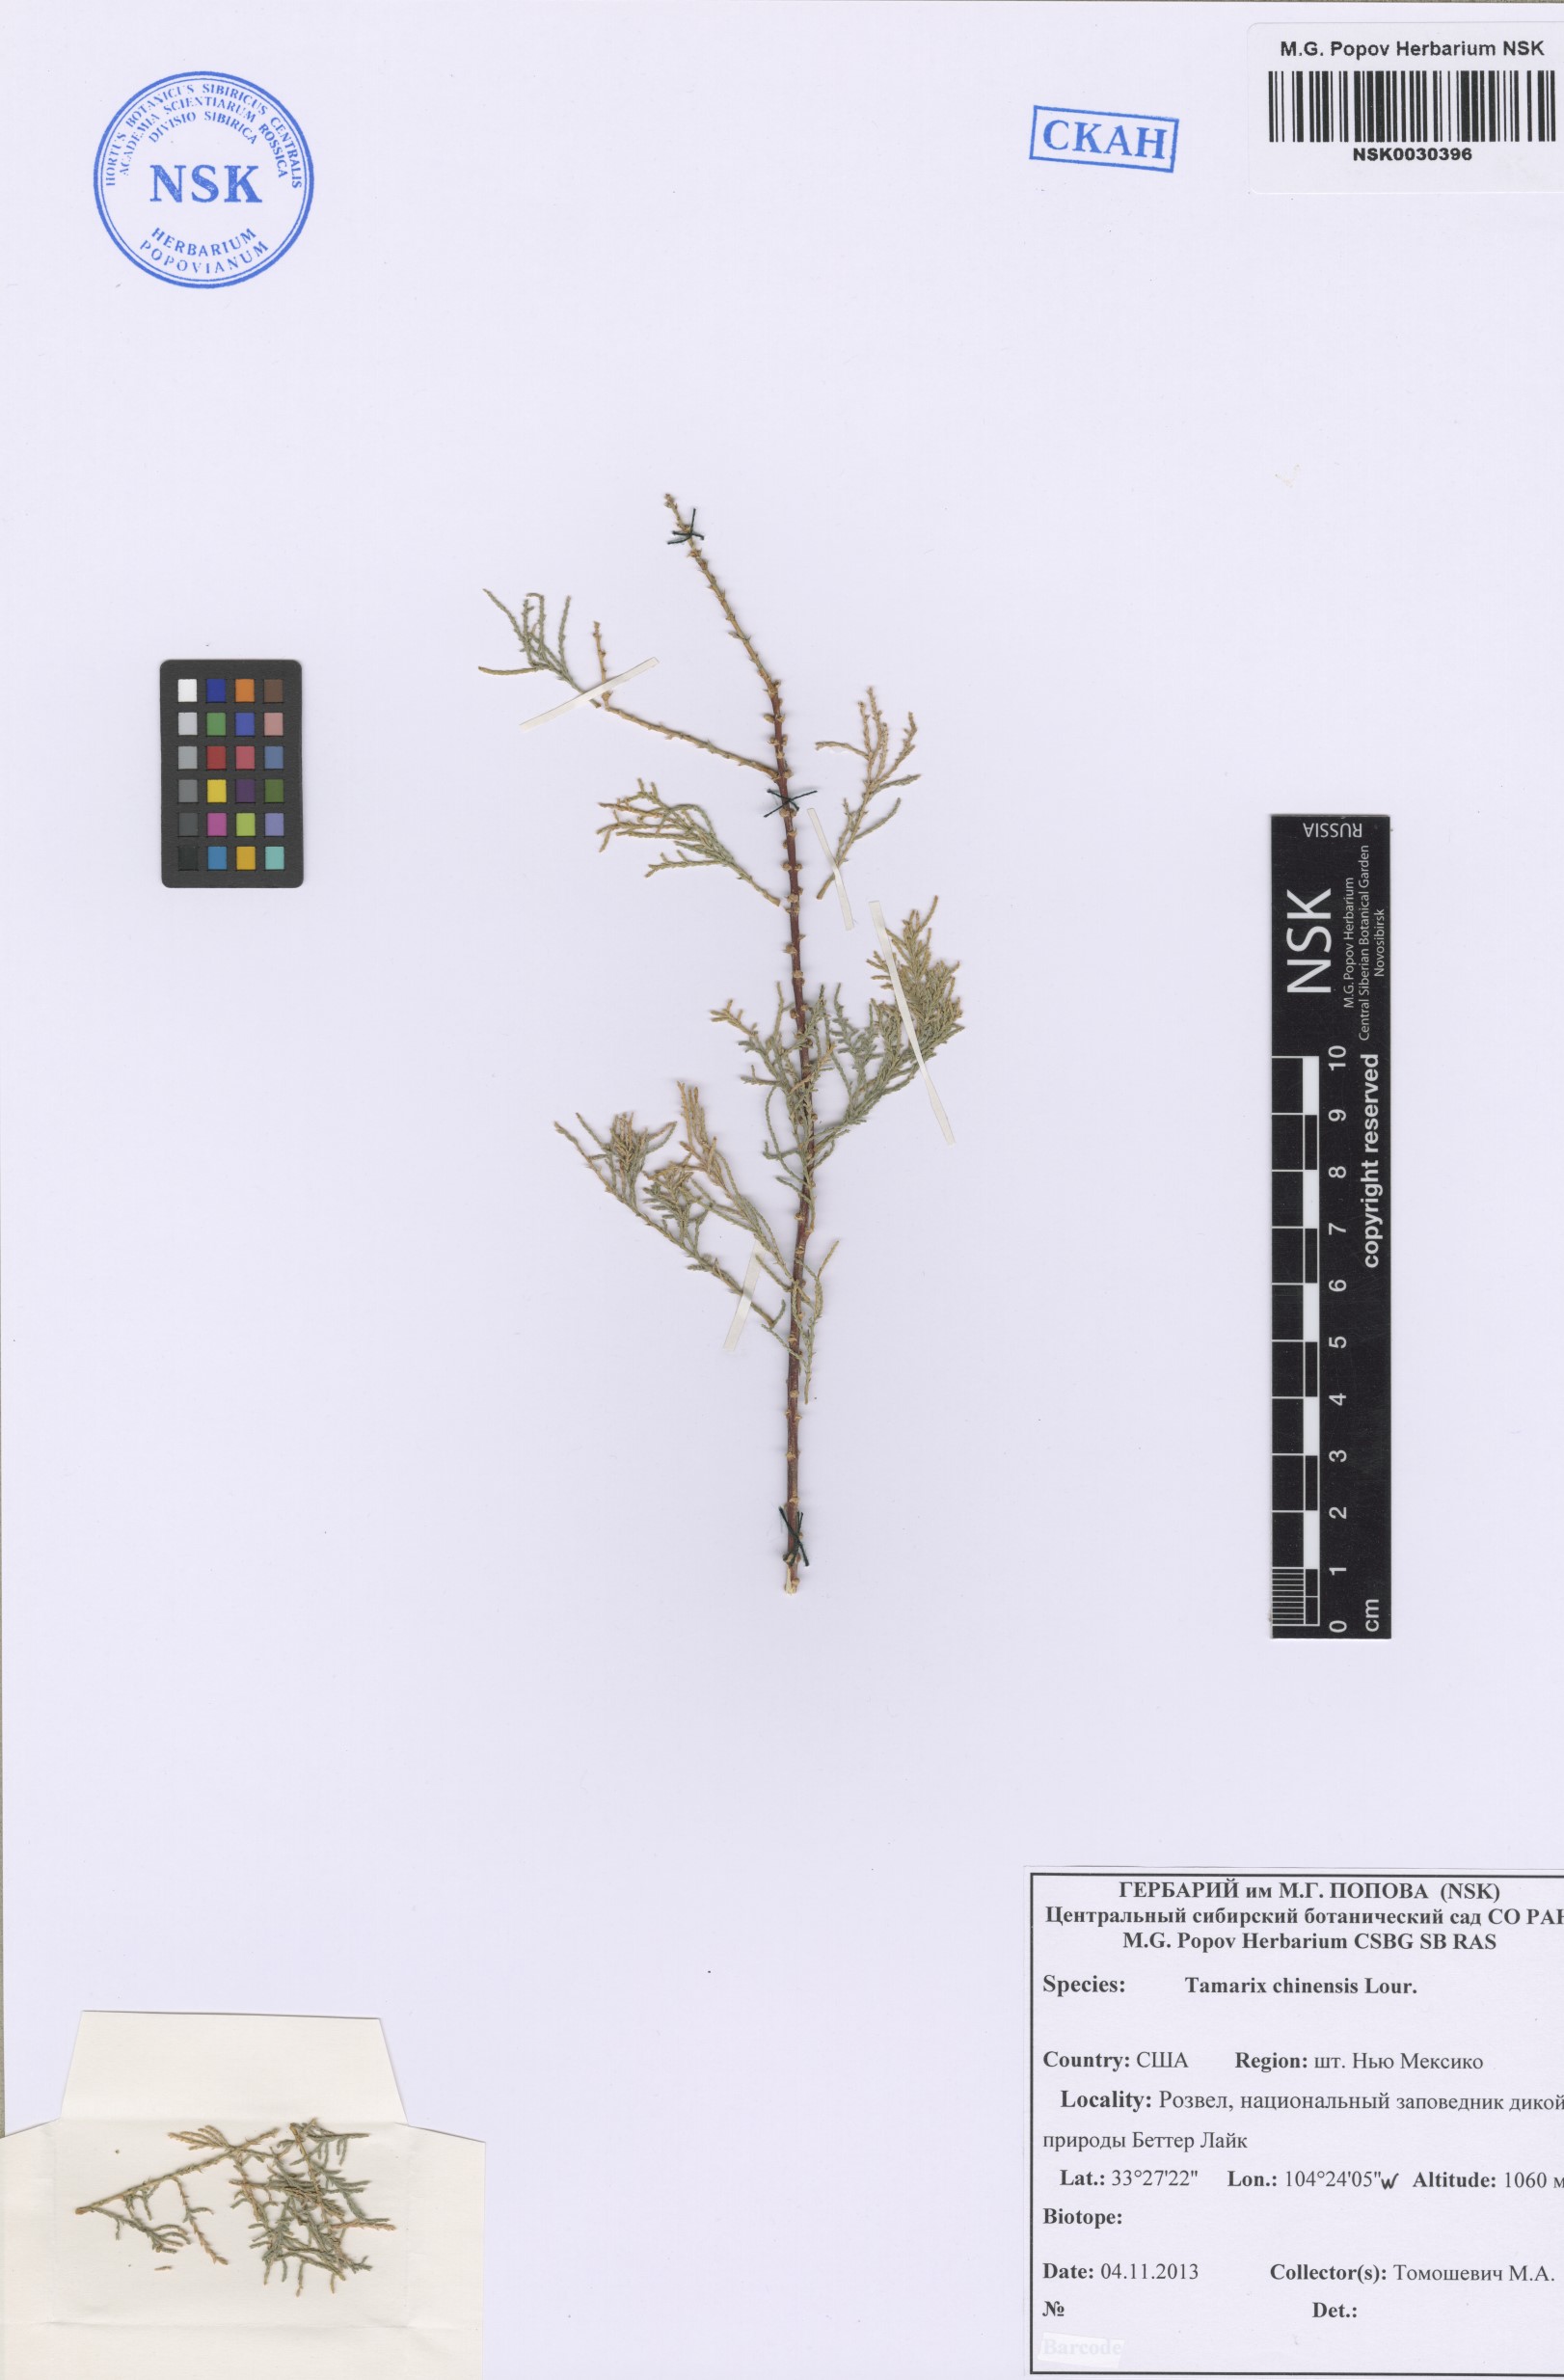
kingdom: Plantae
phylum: Tracheophyta
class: Magnoliopsida
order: Caryophyllales
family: Tamaricaceae
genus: Tamarix
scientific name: Tamarix chinensis
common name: Chinese tamarisk
